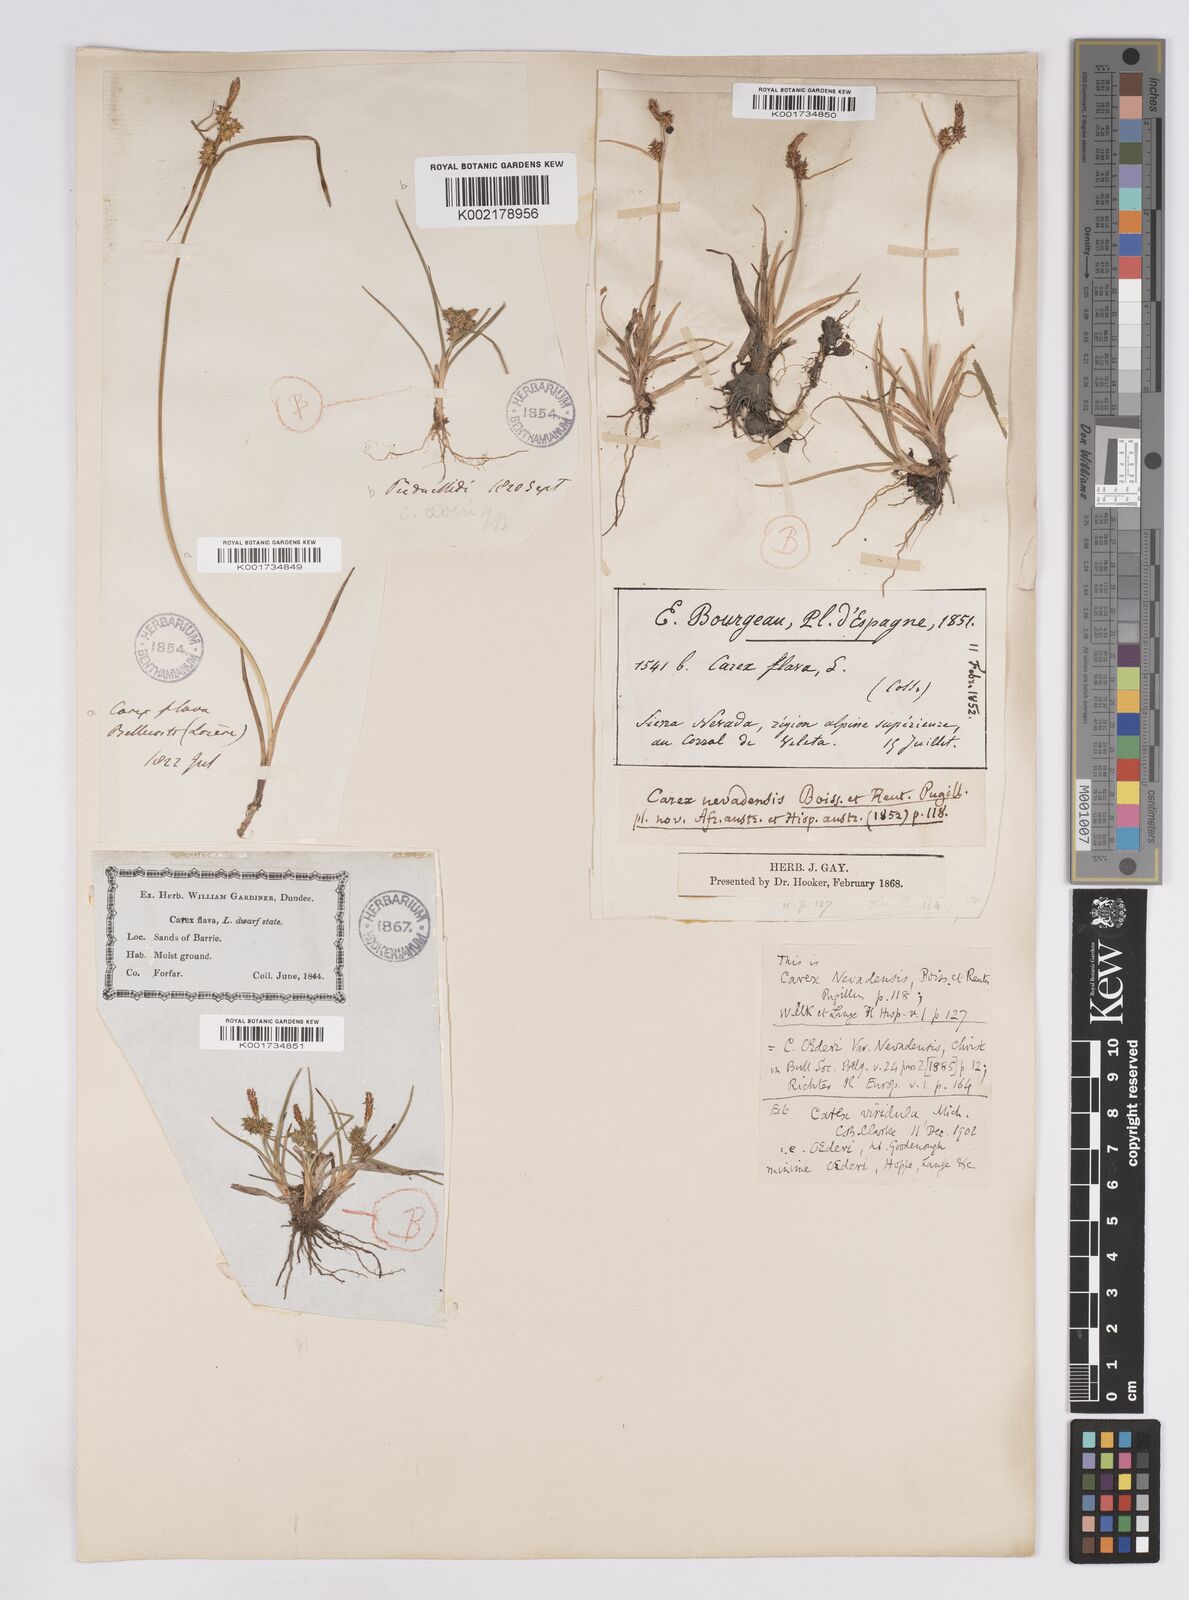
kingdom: Plantae
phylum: Tracheophyta
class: Liliopsida
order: Poales
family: Cyperaceae
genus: Carex
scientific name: Carex lepidocarpa
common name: Long-stalked yellow-sedge
